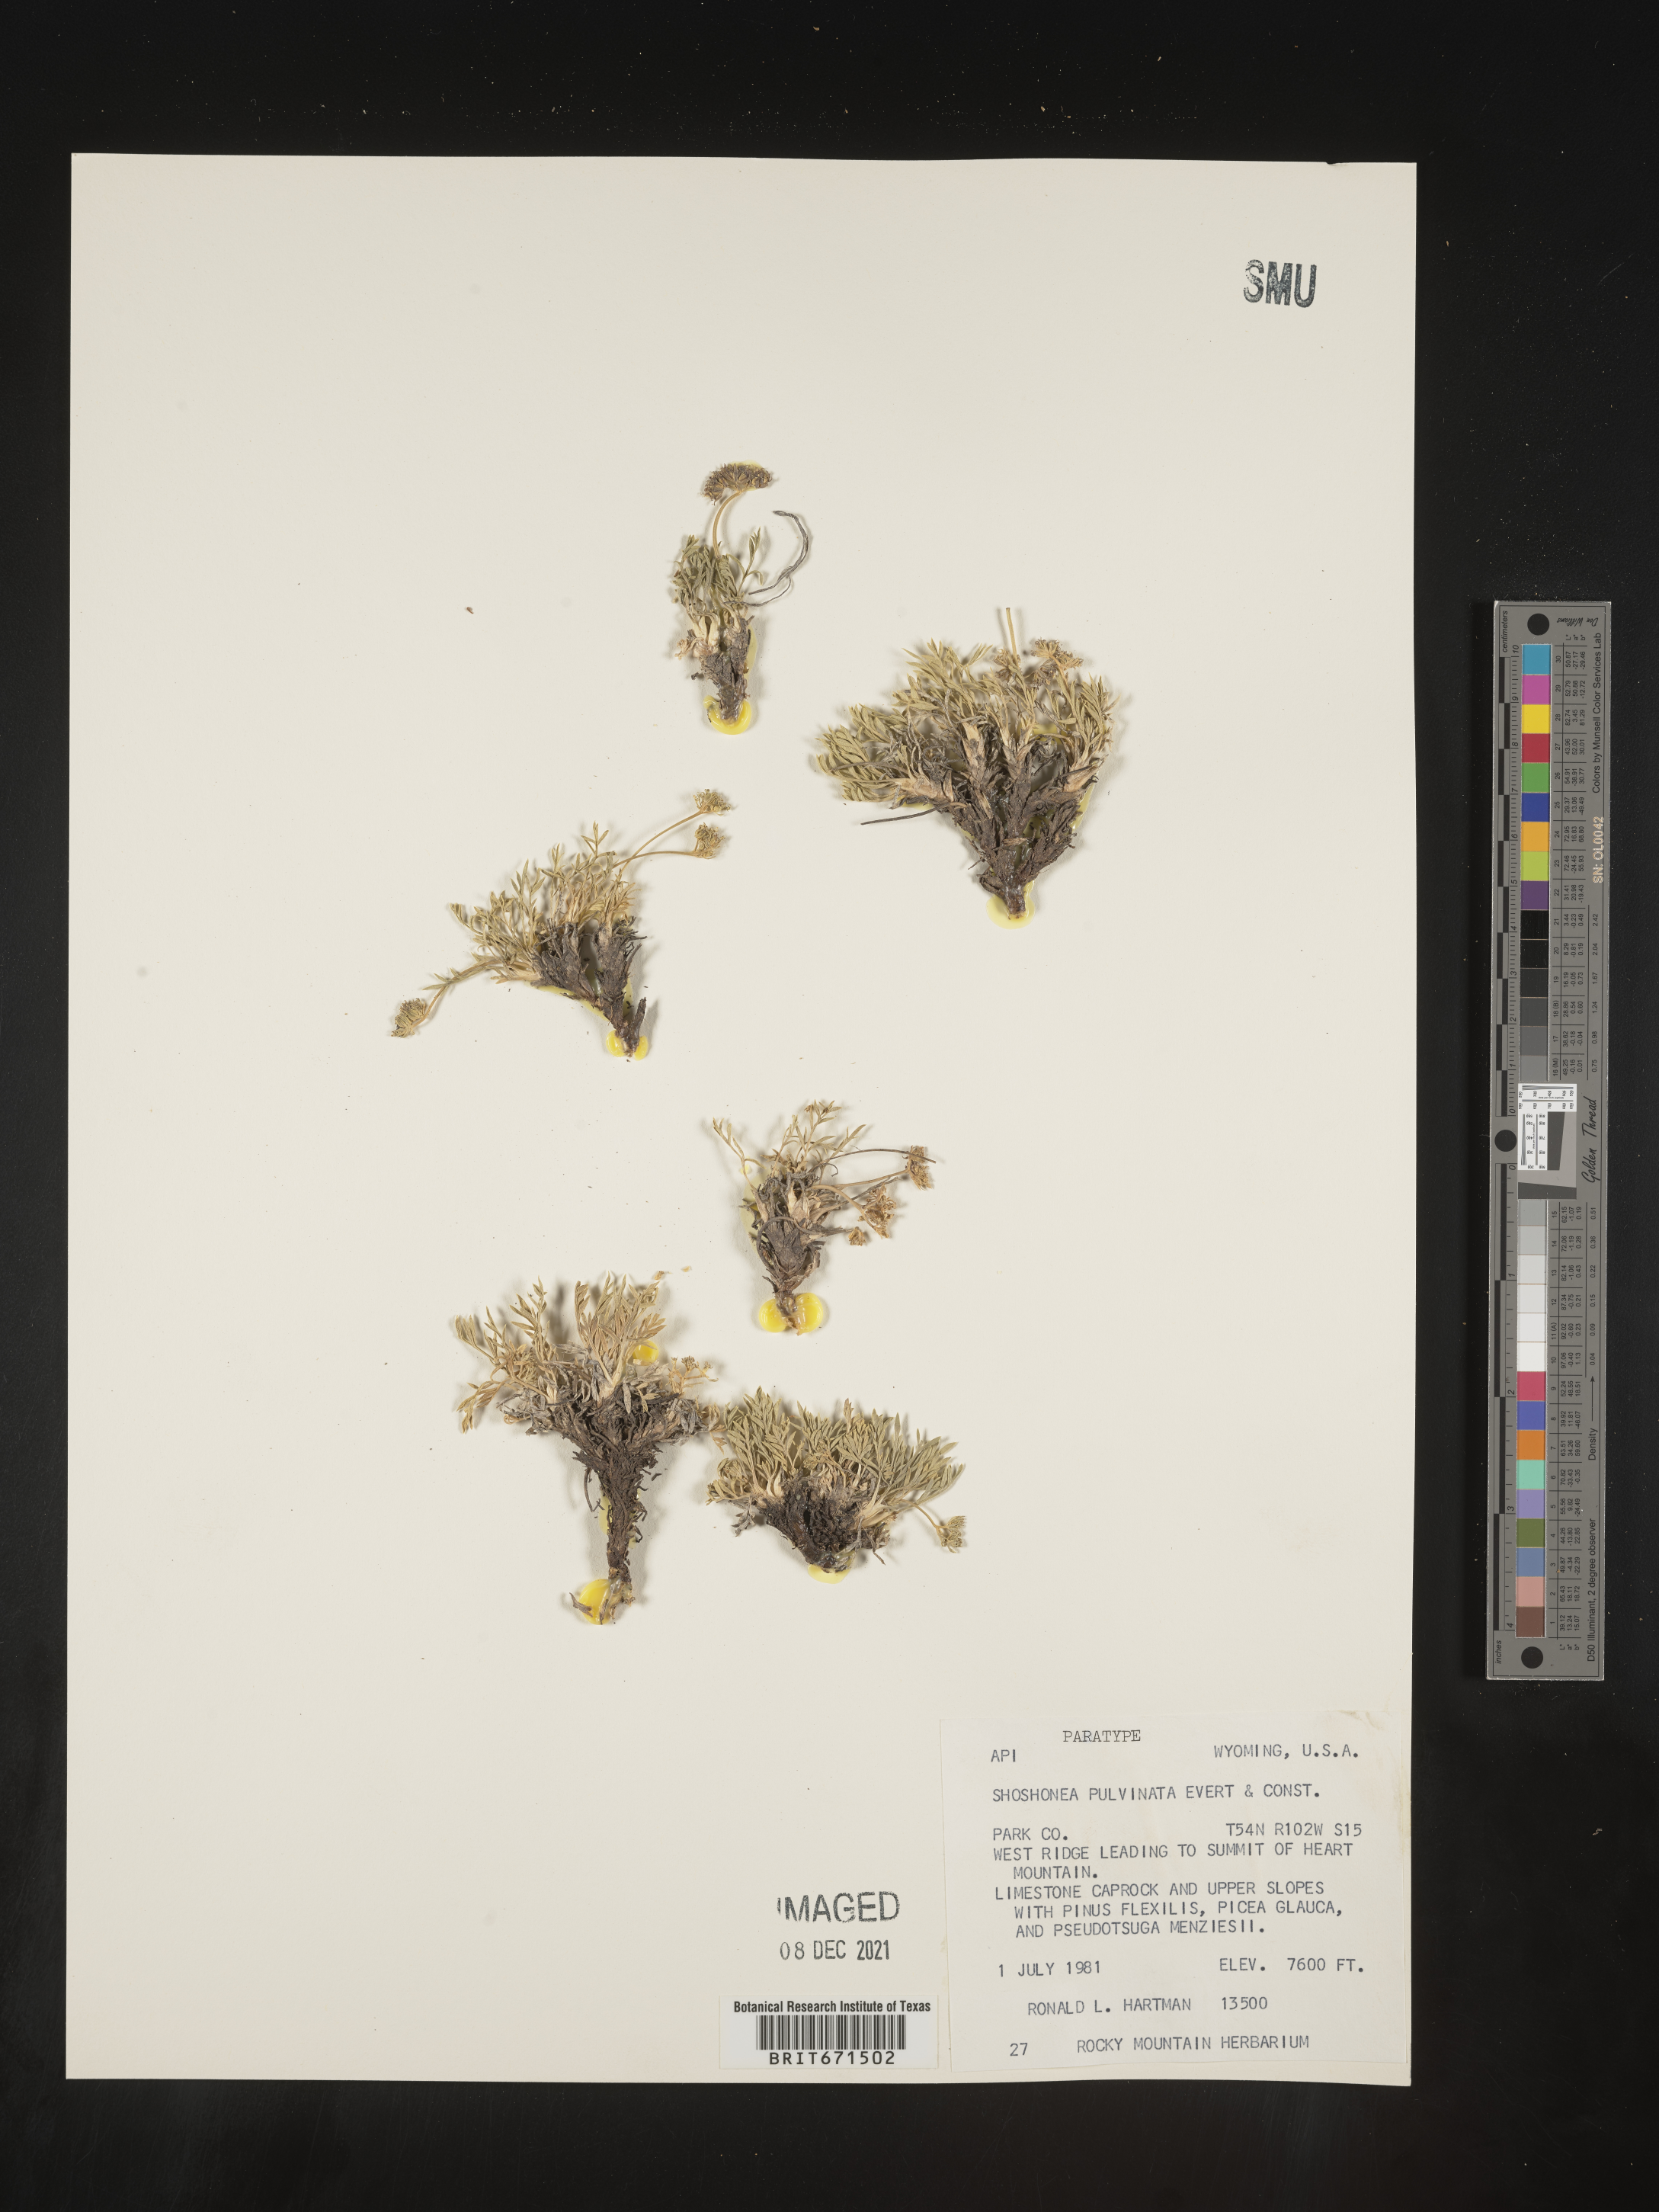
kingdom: Plantae
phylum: Tracheophyta
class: Magnoliopsida
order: Apiales
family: Apiaceae
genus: Shoshonea
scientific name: Shoshonea pulvinata
